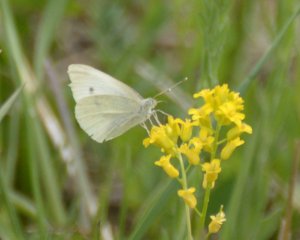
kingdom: Animalia
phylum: Arthropoda
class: Insecta
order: Lepidoptera
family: Pieridae
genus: Pieris
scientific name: Pieris rapae
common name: Cabbage White
